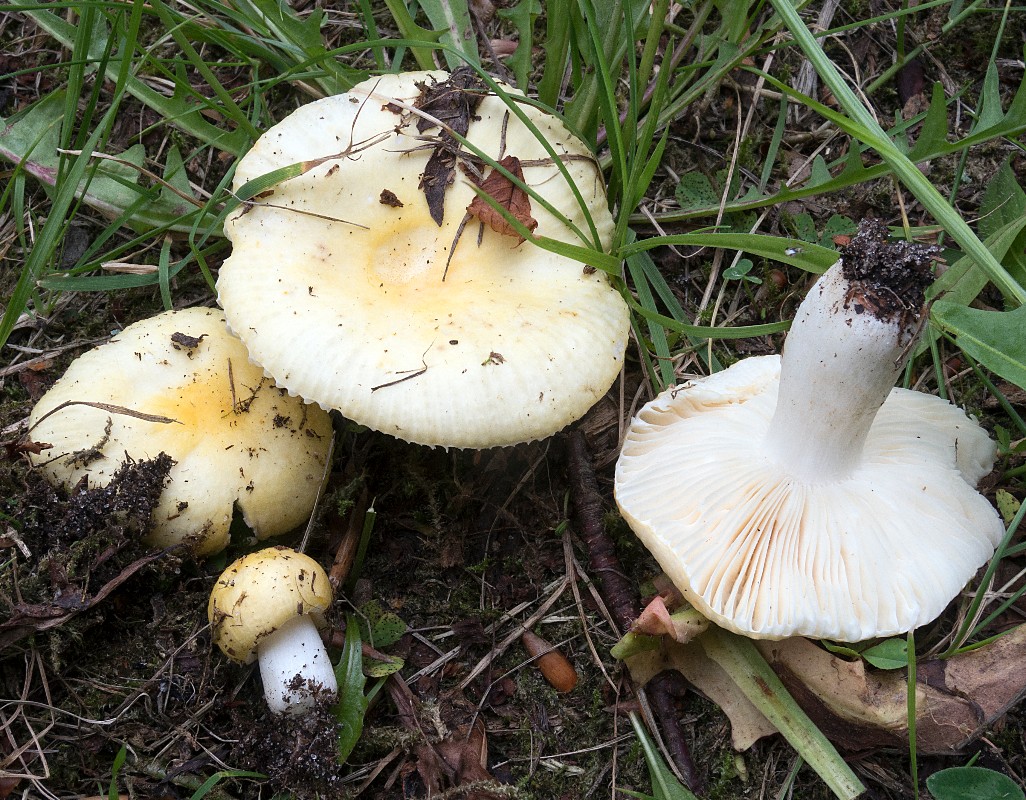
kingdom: Fungi
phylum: Basidiomycota
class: Agaricomycetes
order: Russulales
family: Russulaceae
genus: Russula
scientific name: Russula solaris
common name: sol-skørhat
